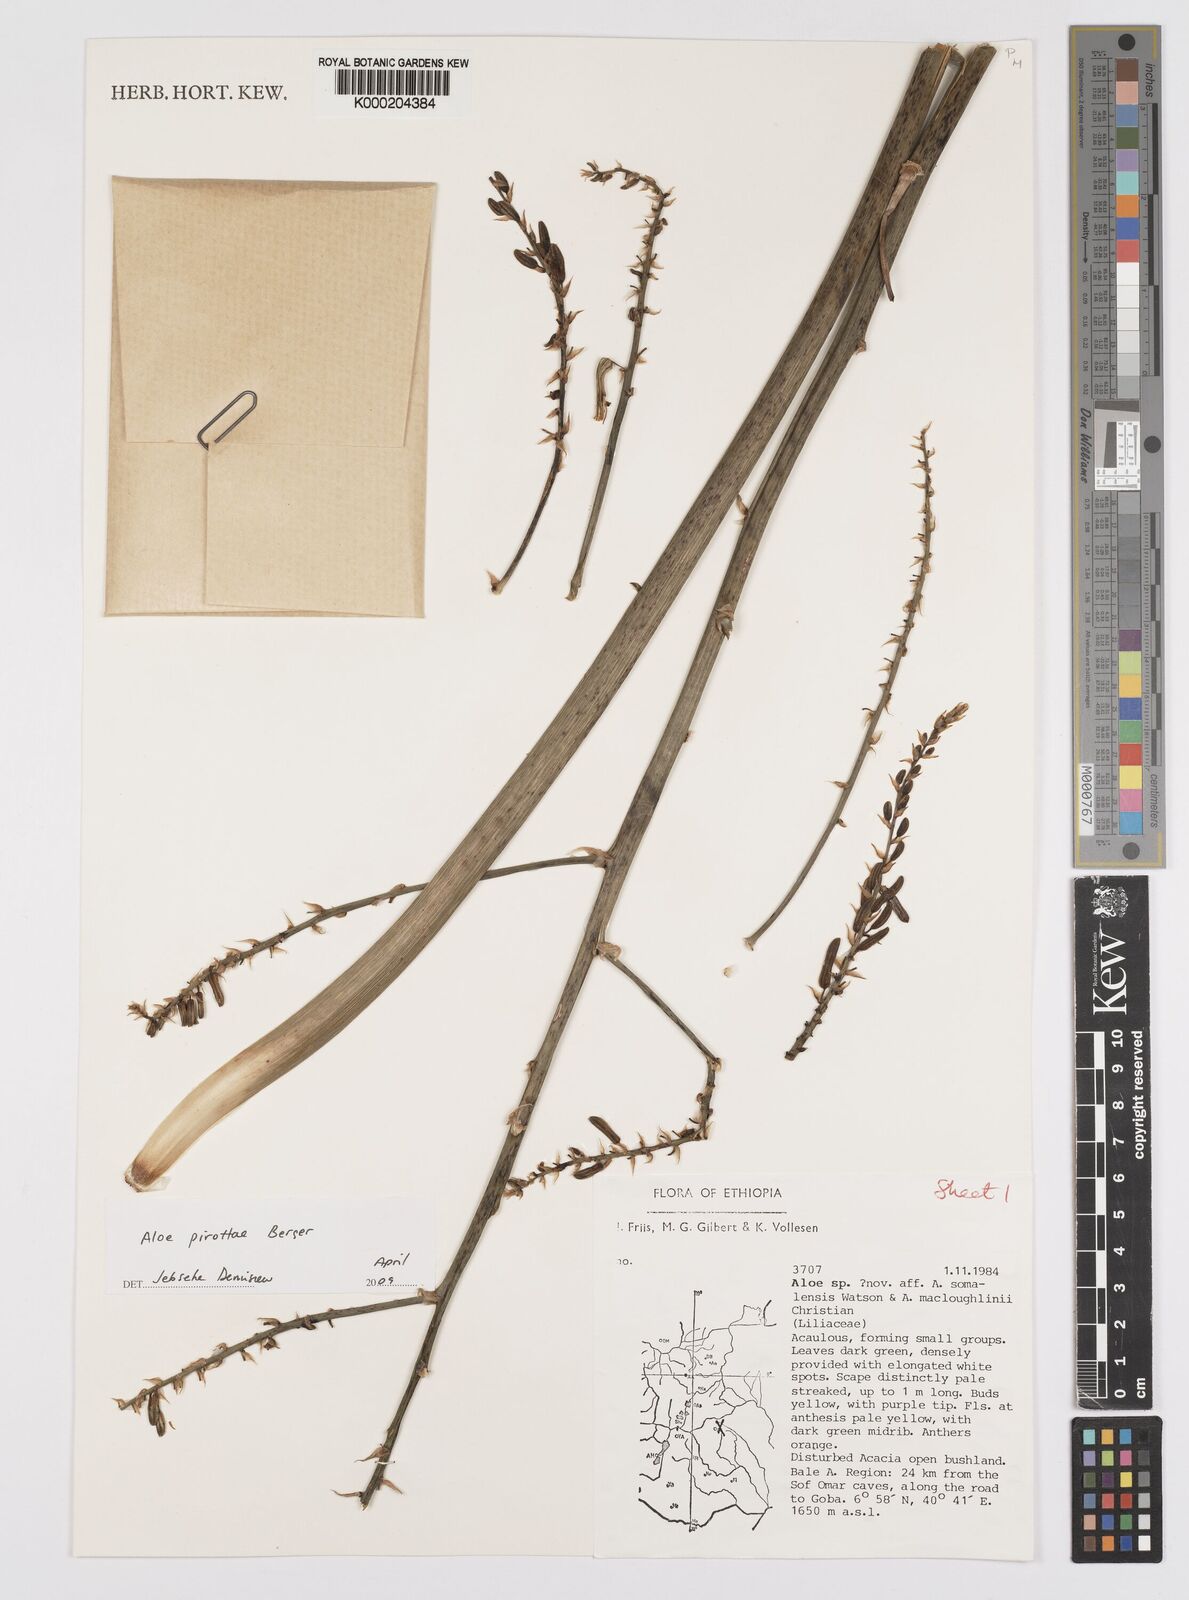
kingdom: Plantae
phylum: Tracheophyta
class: Liliopsida
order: Asparagales
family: Asphodelaceae
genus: Aloe
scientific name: Aloe pirottae
